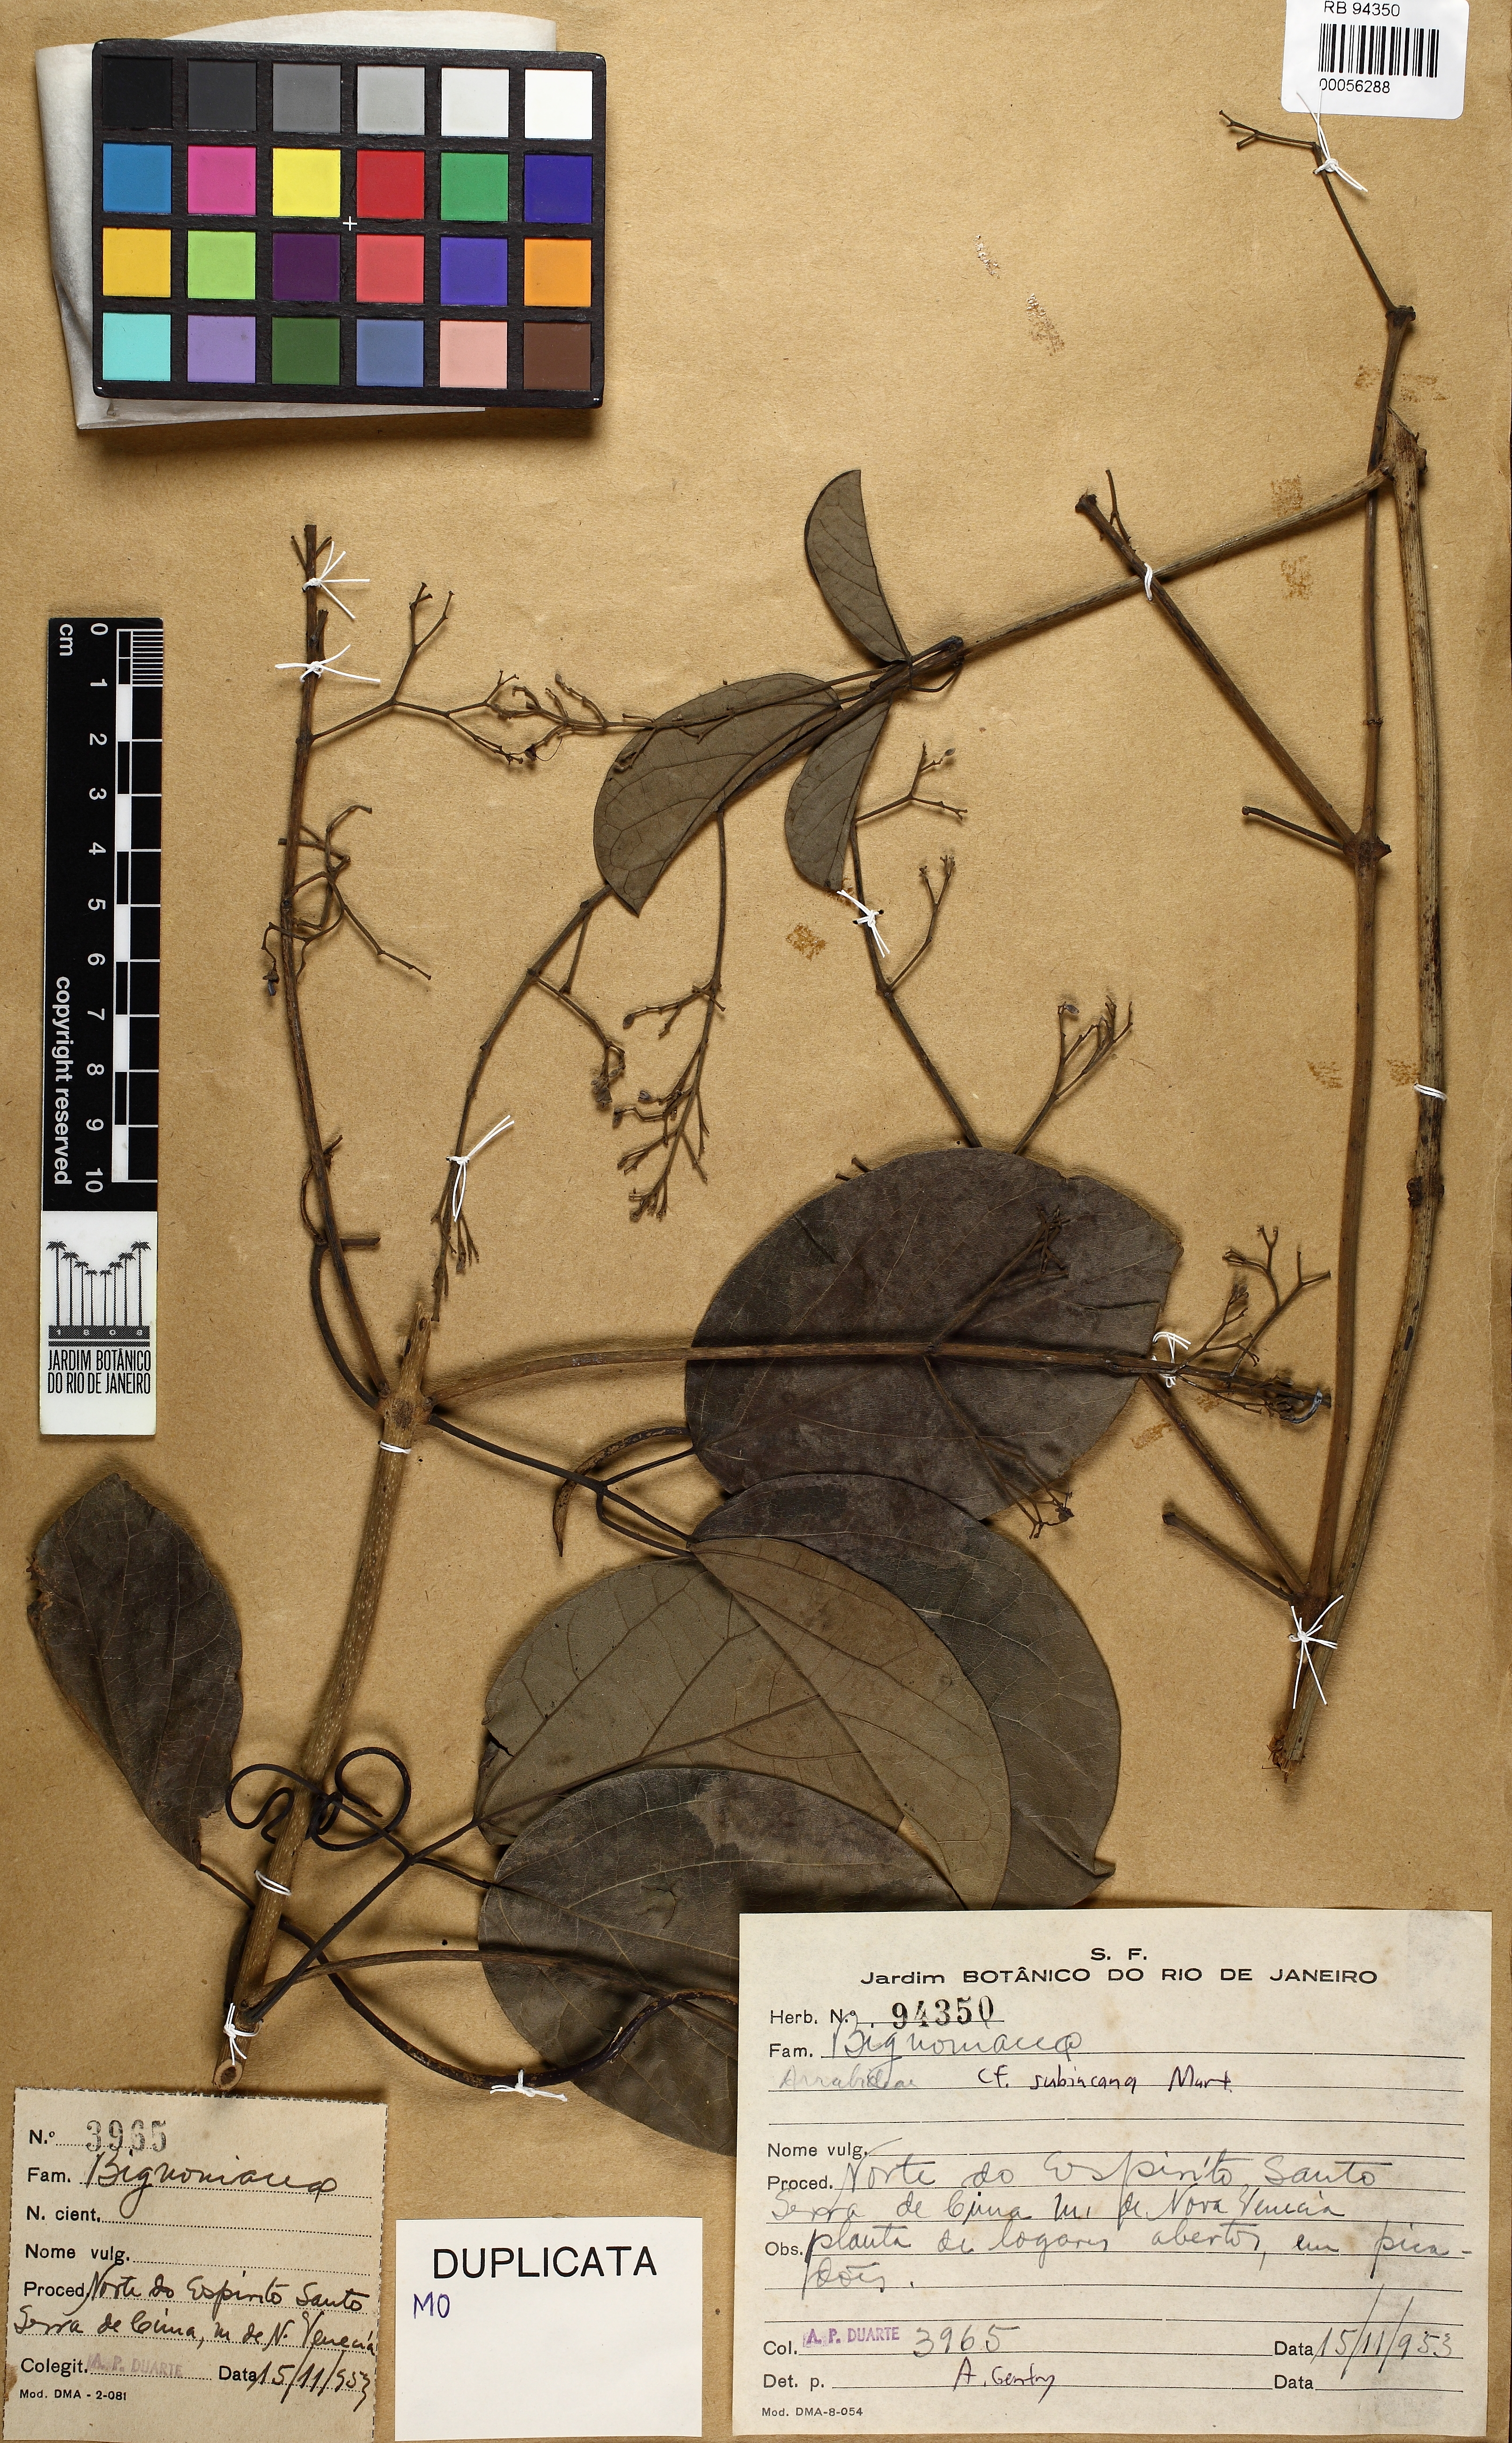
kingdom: Plantae
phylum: Tracheophyta
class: Magnoliopsida
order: Lamiales
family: Bignoniaceae
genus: Fridericia
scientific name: Fridericia subincana
